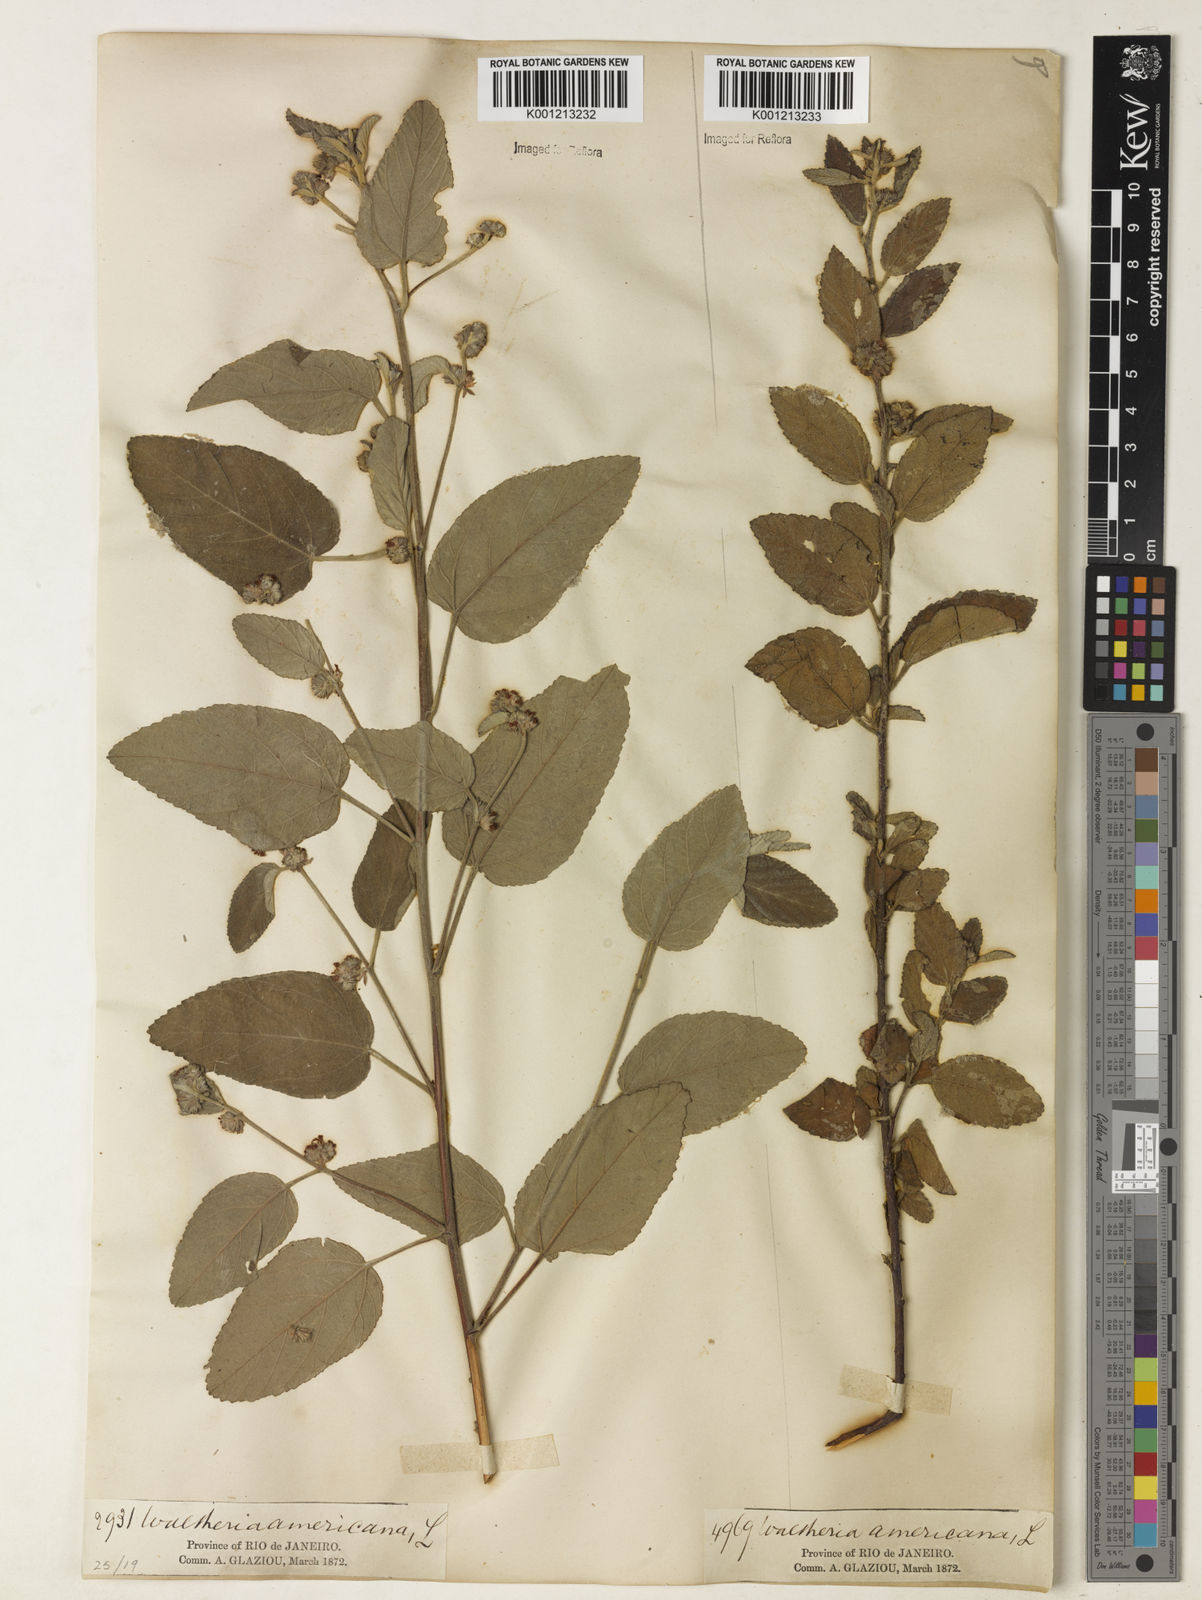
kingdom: Plantae
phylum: Tracheophyta
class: Magnoliopsida
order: Malvales
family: Malvaceae
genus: Waltheria
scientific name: Waltheria indica
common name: Leather-coat
